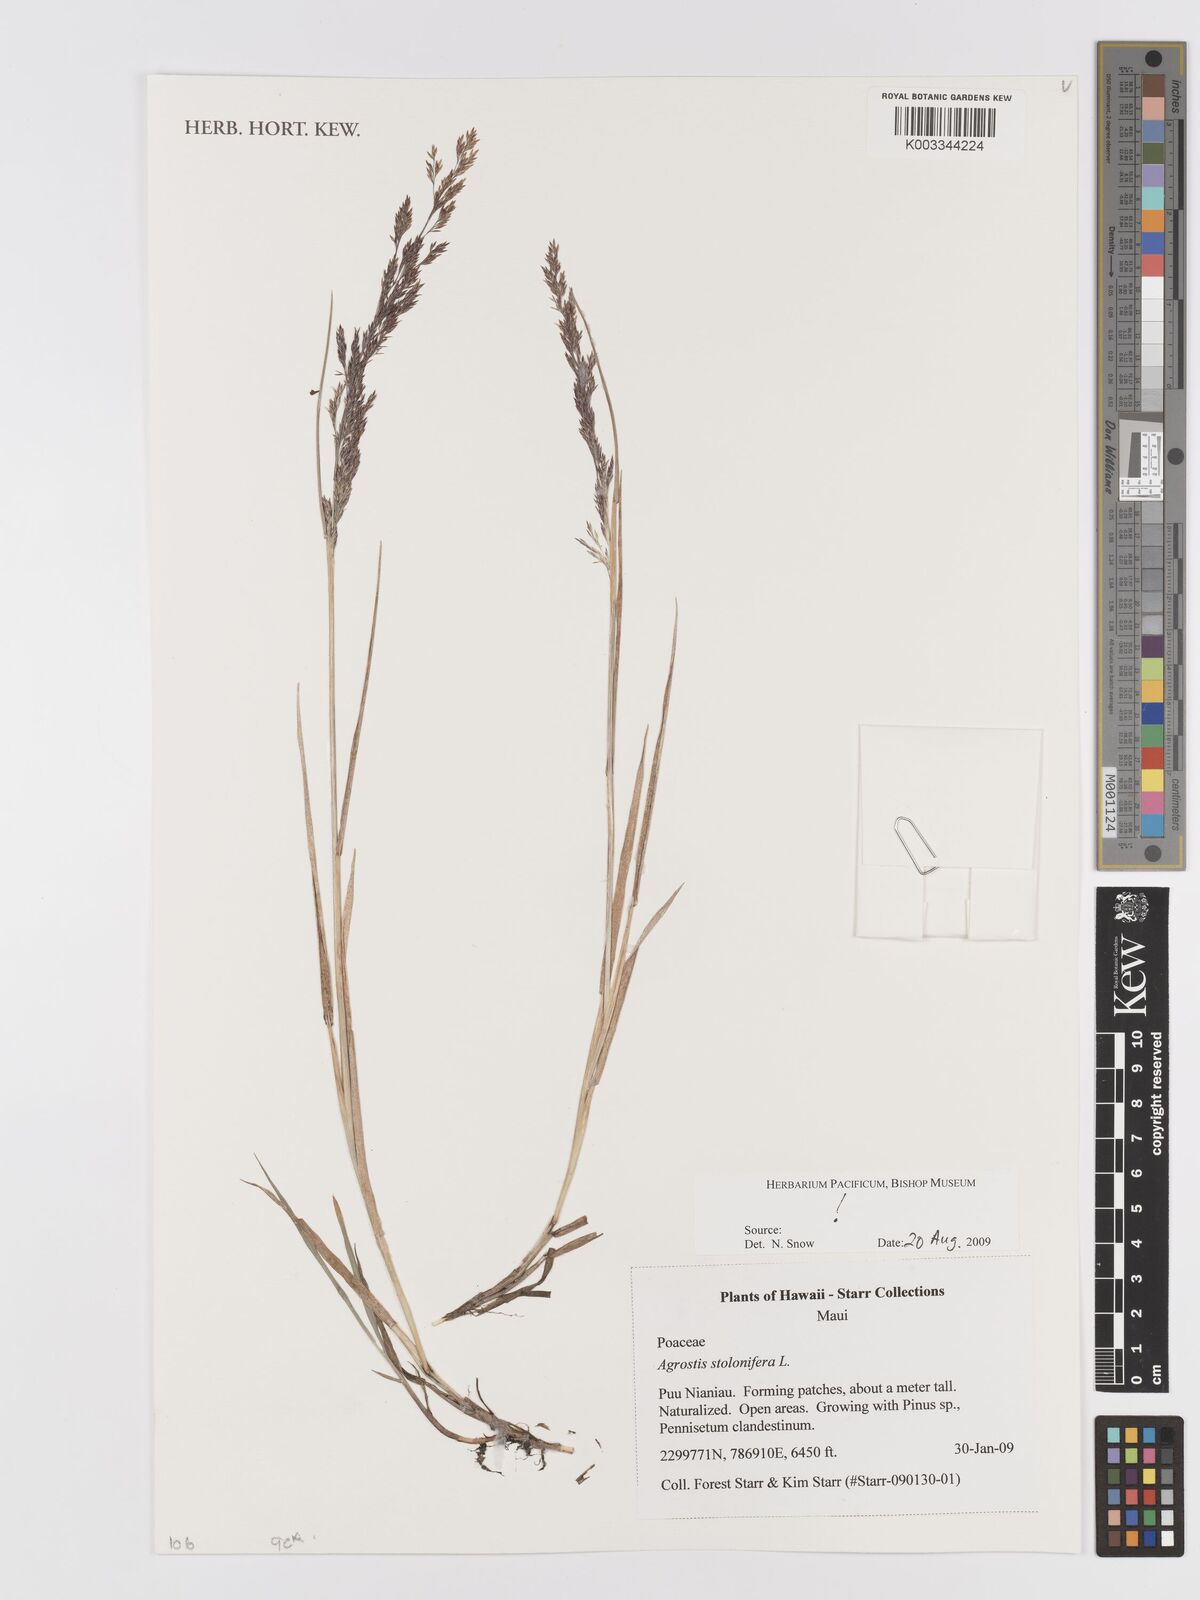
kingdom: Plantae
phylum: Tracheophyta
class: Liliopsida
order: Poales
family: Poaceae
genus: Agrostis
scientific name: Agrostis stolonifera
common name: Creeping bentgrass
